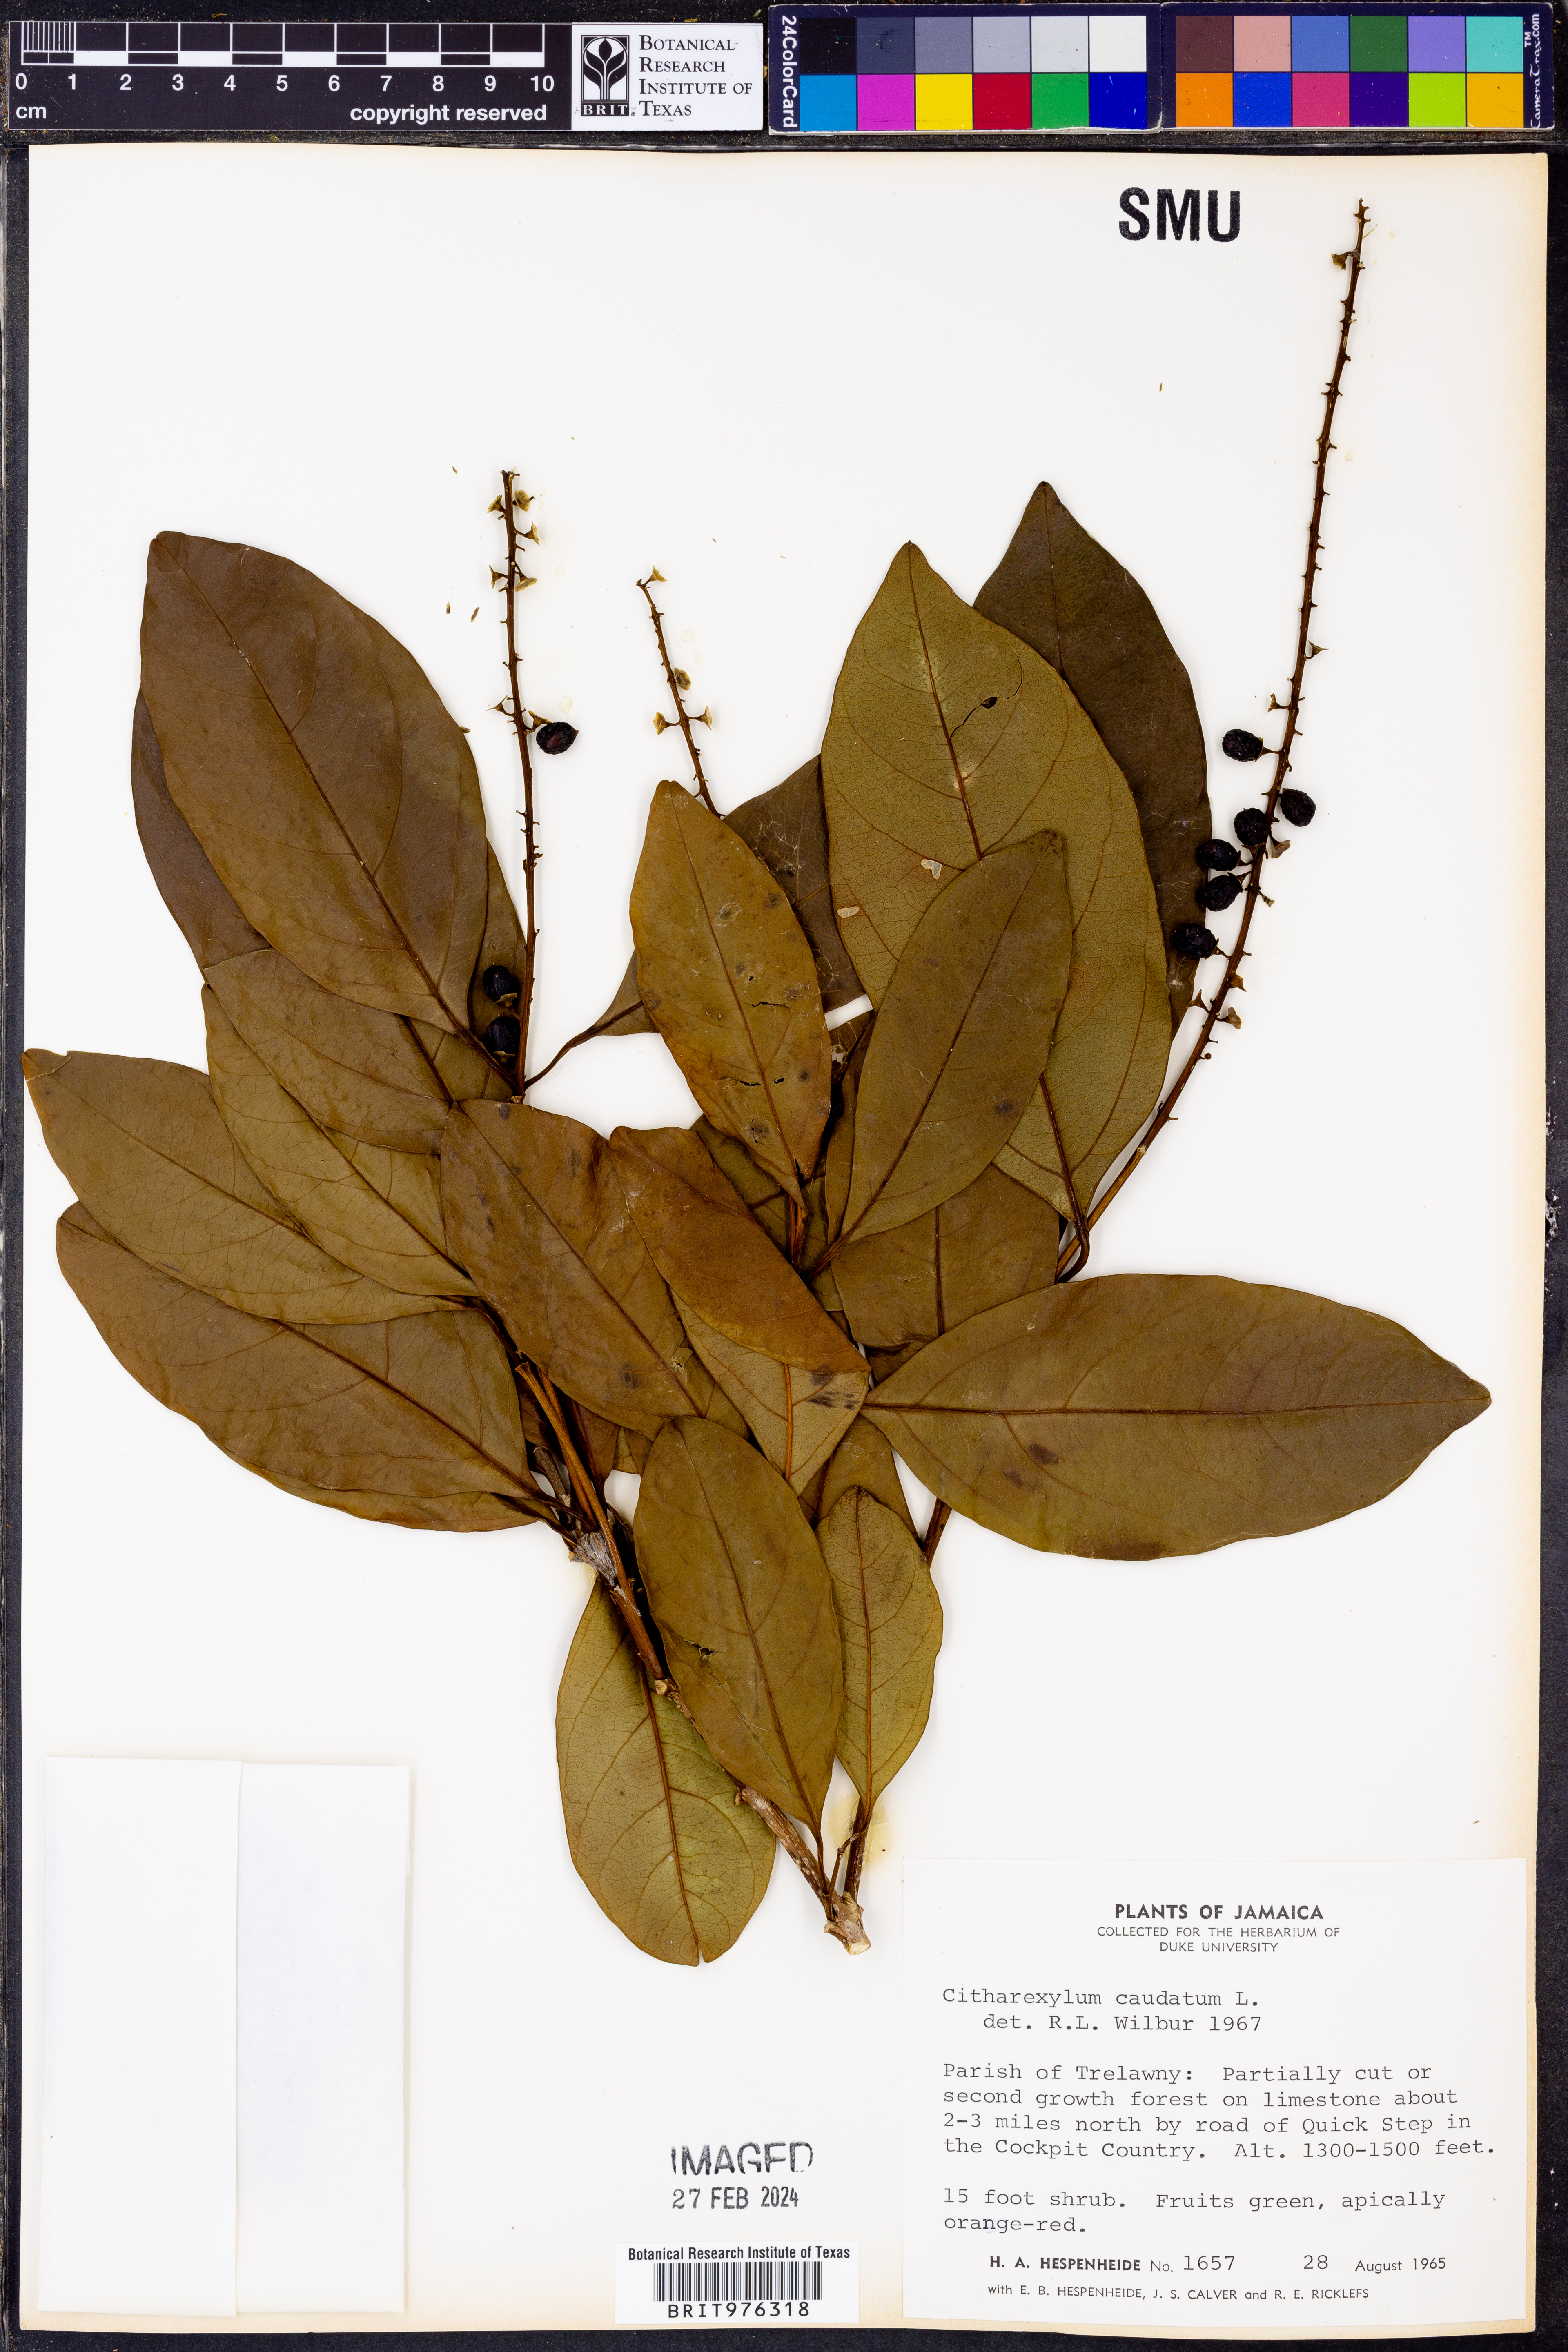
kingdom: Plantae
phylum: Tracheophyta
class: Magnoliopsida
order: Lamiales
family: Verbenaceae
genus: Citharexylum
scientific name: Citharexylum
